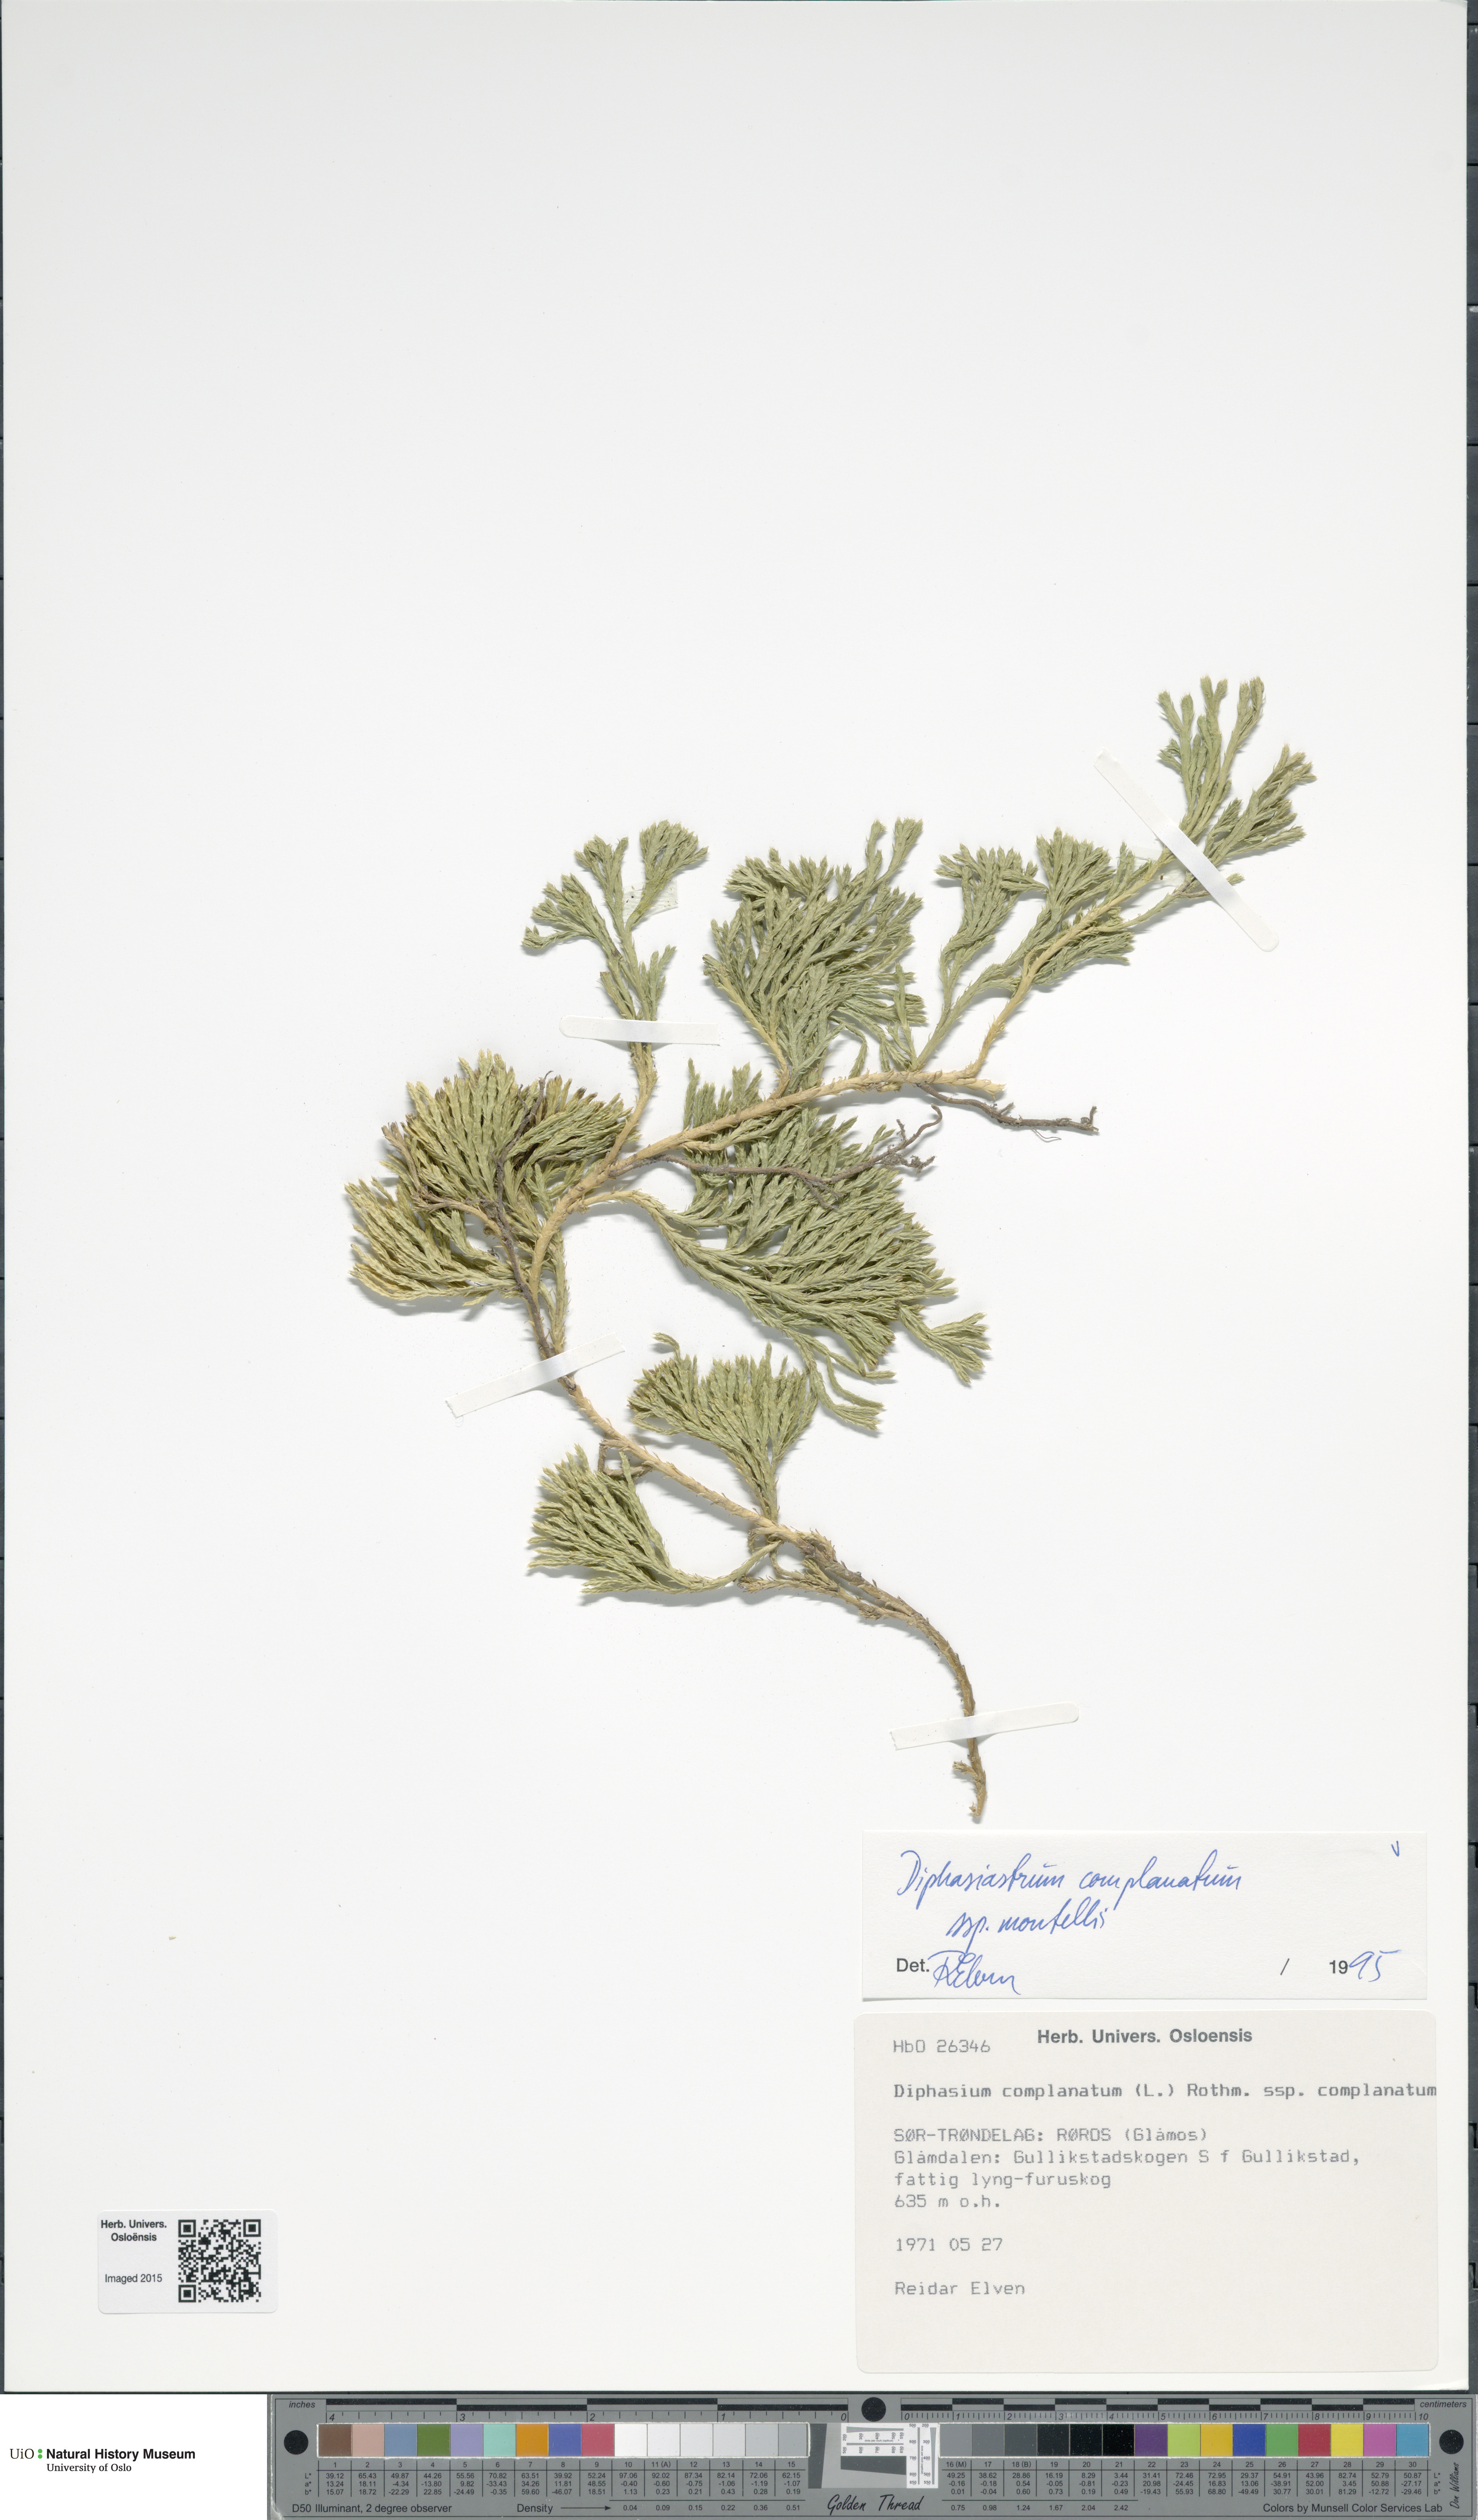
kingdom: Plantae
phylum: Tracheophyta
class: Lycopodiopsida
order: Lycopodiales
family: Lycopodiaceae
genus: Diphasiastrum
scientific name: Diphasiastrum complanatum
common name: Northern running-pine
